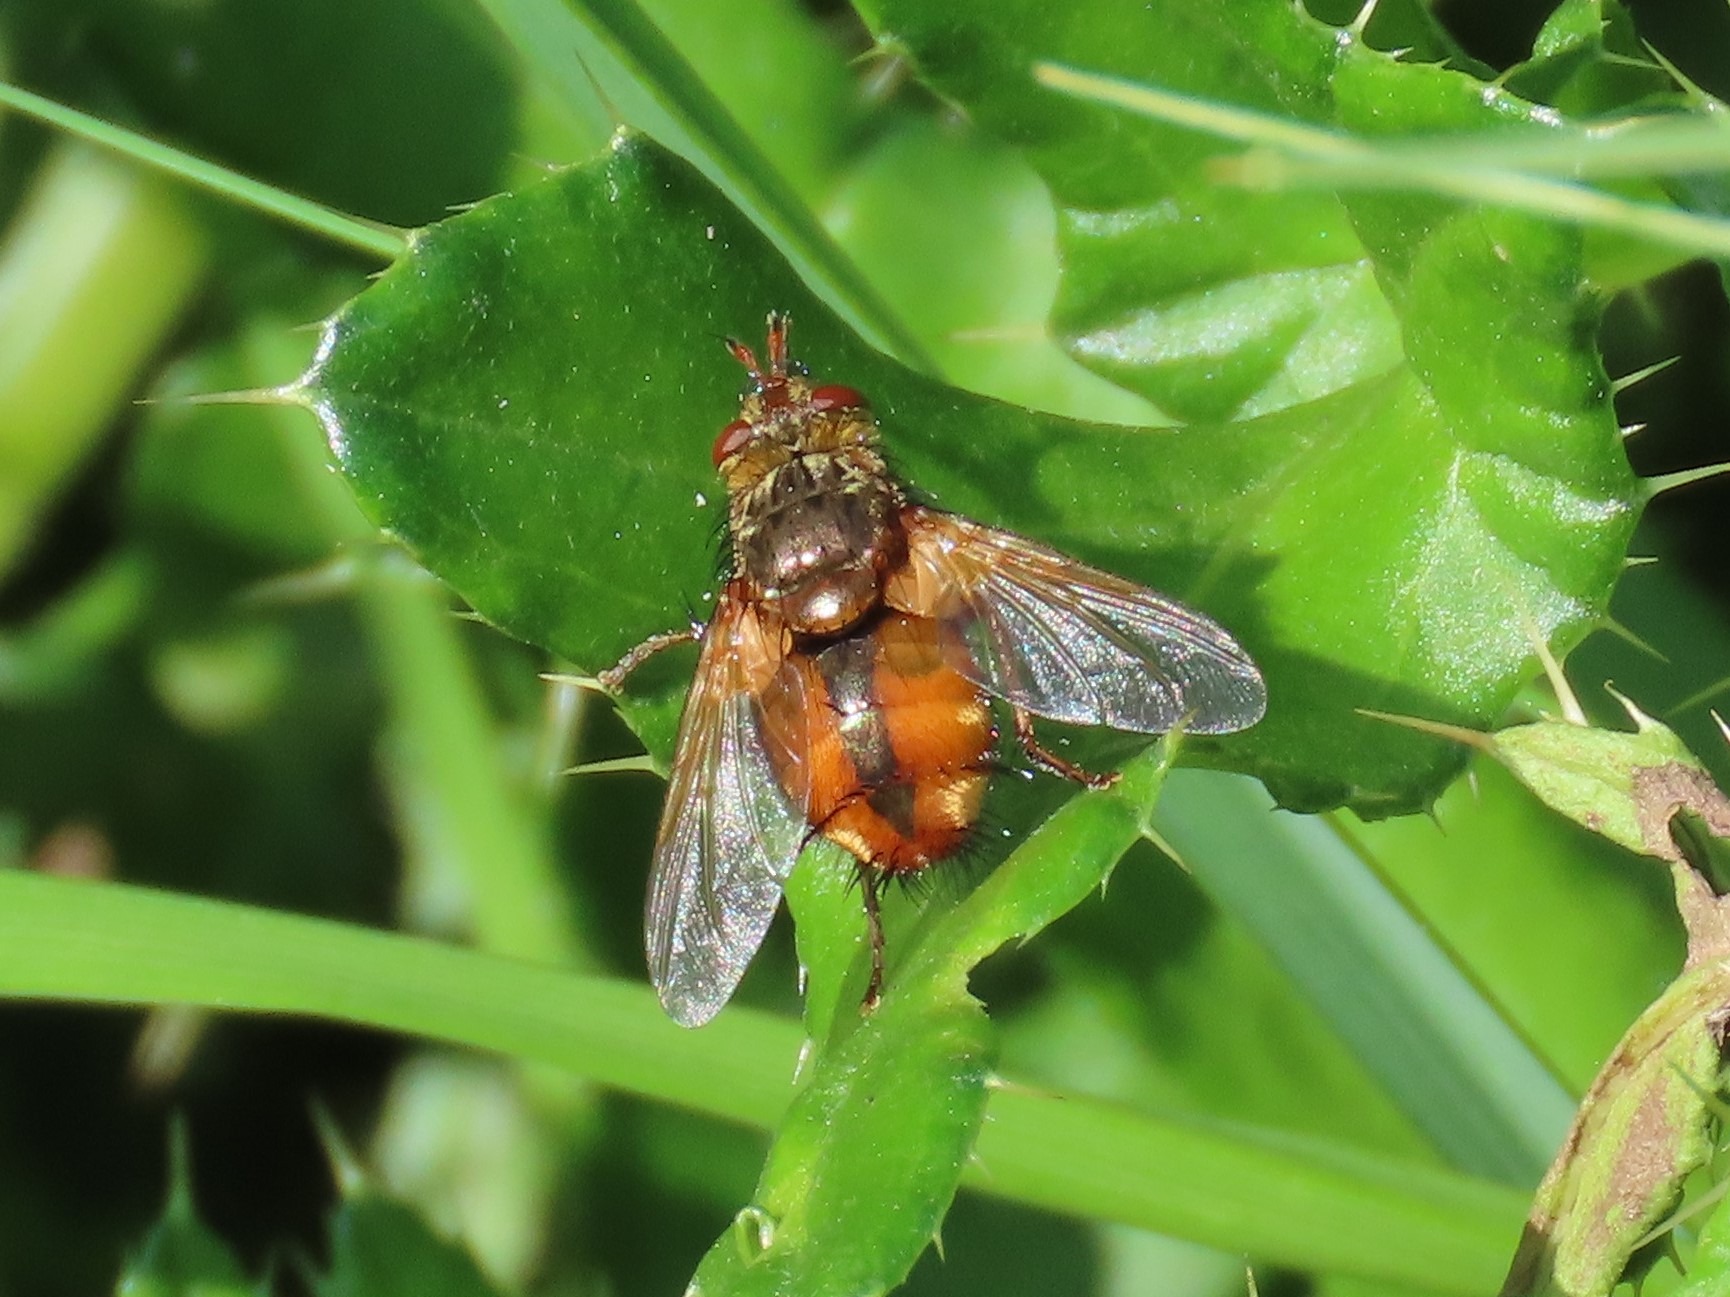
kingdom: Animalia
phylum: Arthropoda
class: Insecta
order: Diptera
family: Tachinidae
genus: Tachina
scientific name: Tachina fera
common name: Mellemfluen oskar
